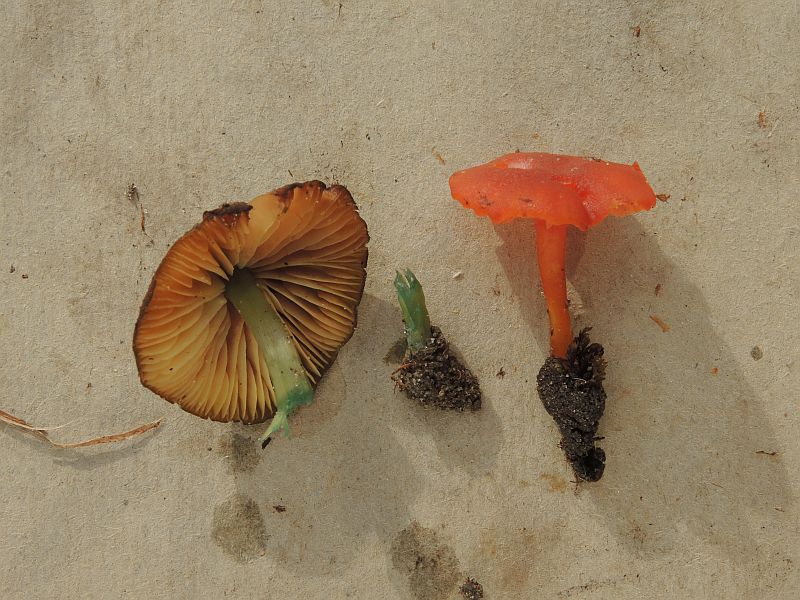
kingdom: Fungi
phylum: Basidiomycota
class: Agaricomycetes
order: Agaricales
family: Entolomataceae
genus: Entoloma
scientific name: Entoloma incanum
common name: grøngul rødblad
